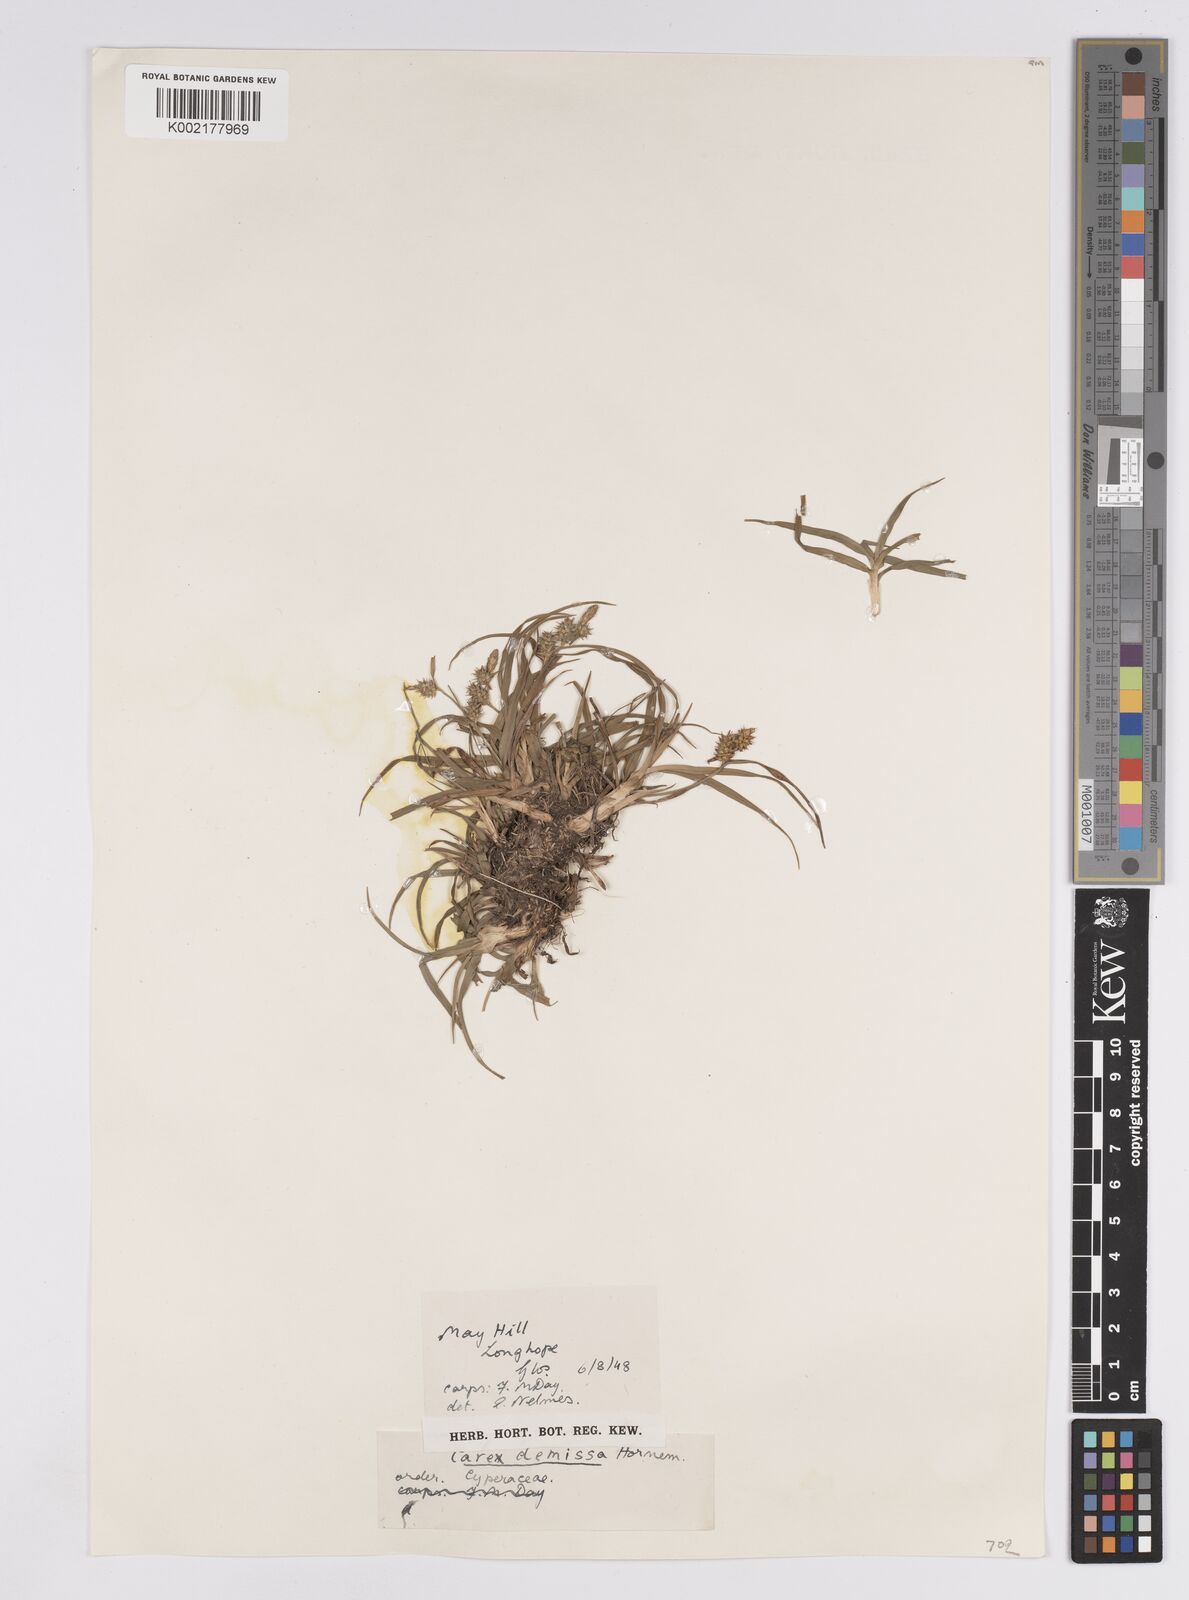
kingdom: Plantae
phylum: Tracheophyta
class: Liliopsida
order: Poales
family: Cyperaceae
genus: Carex
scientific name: Carex demissa
